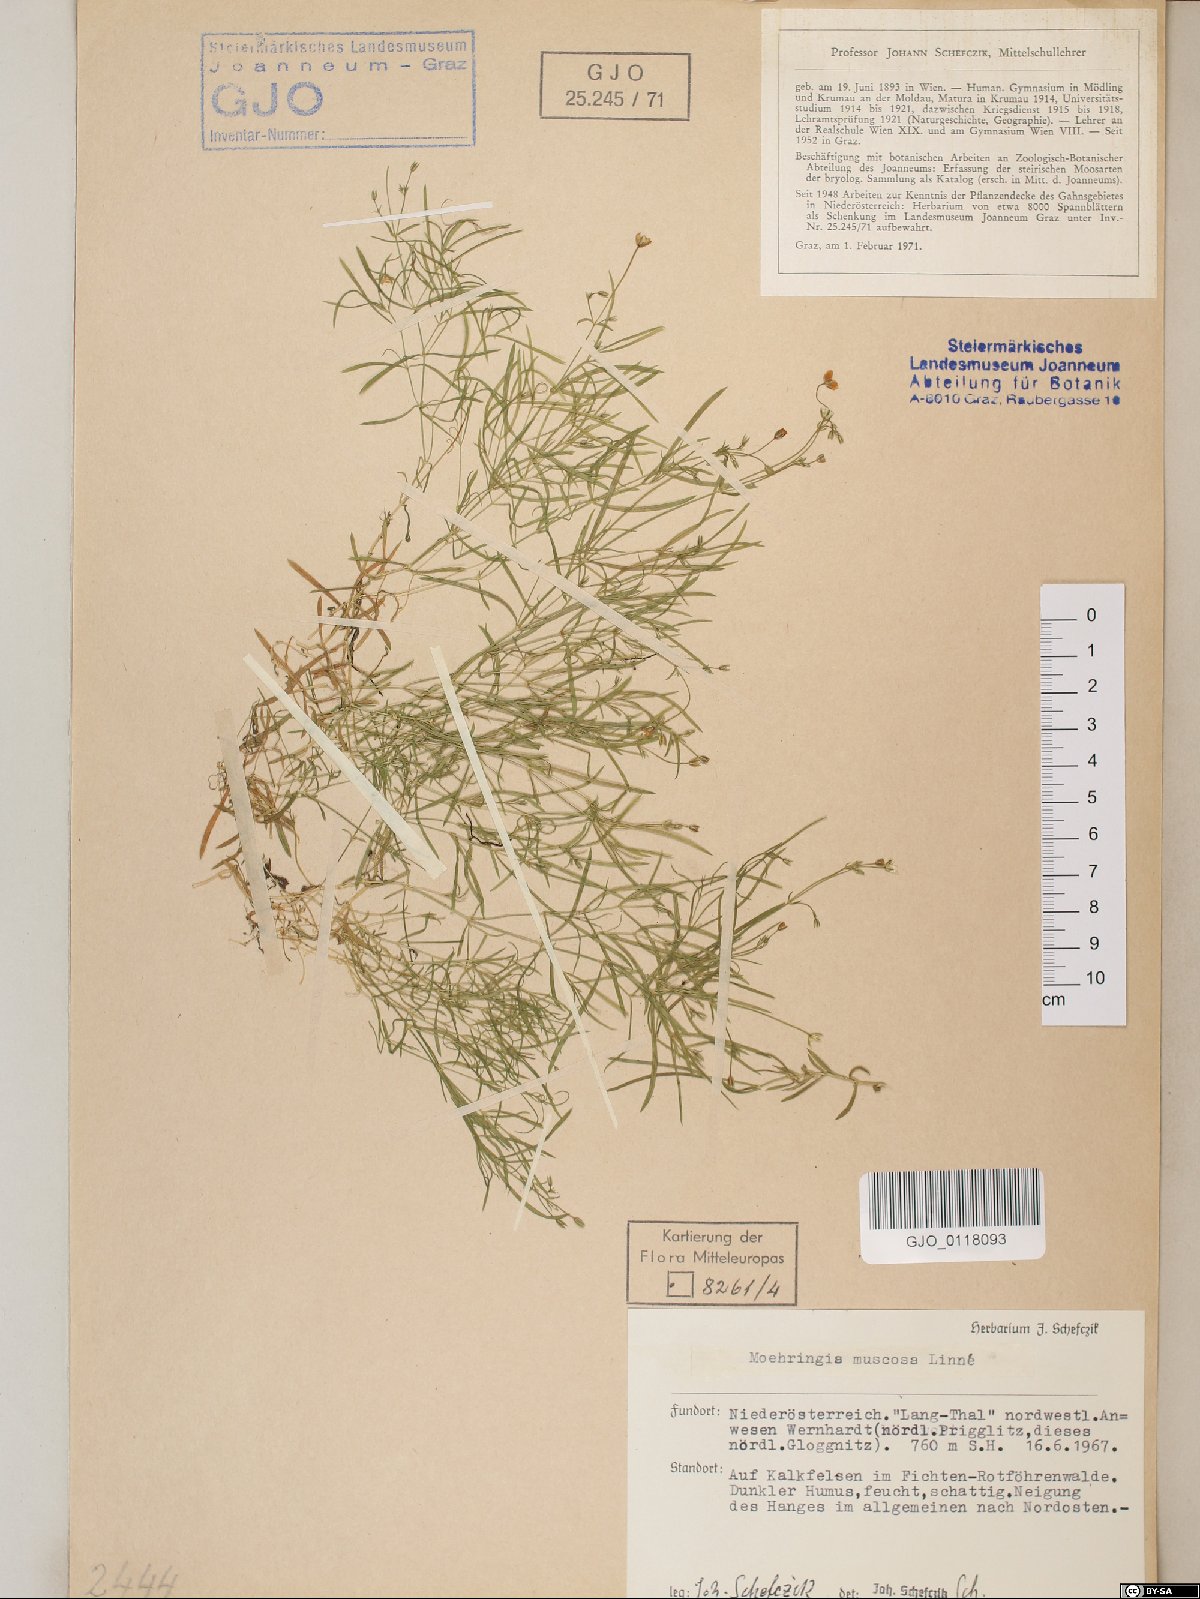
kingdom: Plantae
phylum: Tracheophyta
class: Magnoliopsida
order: Caryophyllales
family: Caryophyllaceae
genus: Moehringia
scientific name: Moehringia muscosa
